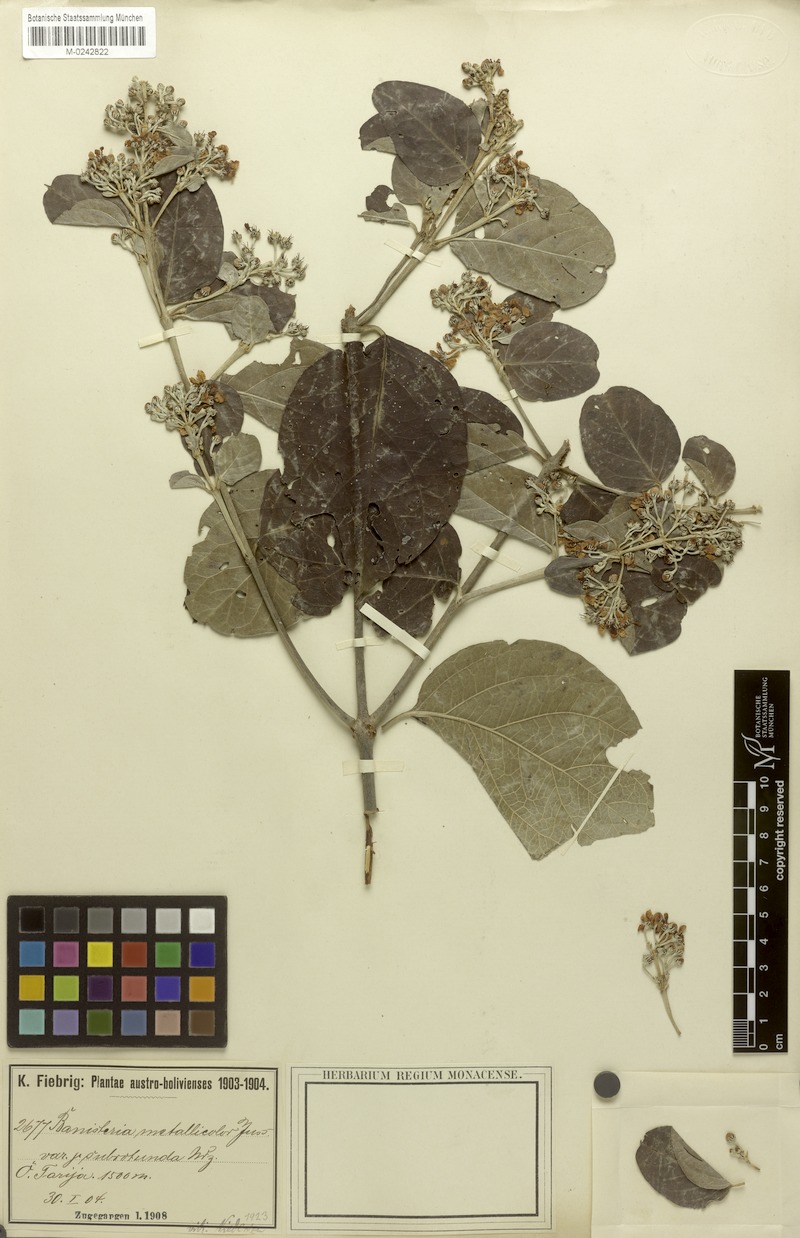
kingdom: Plantae
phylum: Tracheophyta
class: Magnoliopsida
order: Malpighiales
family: Malpighiaceae
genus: Banisteriopsis
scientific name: Banisteriopsis muricata
